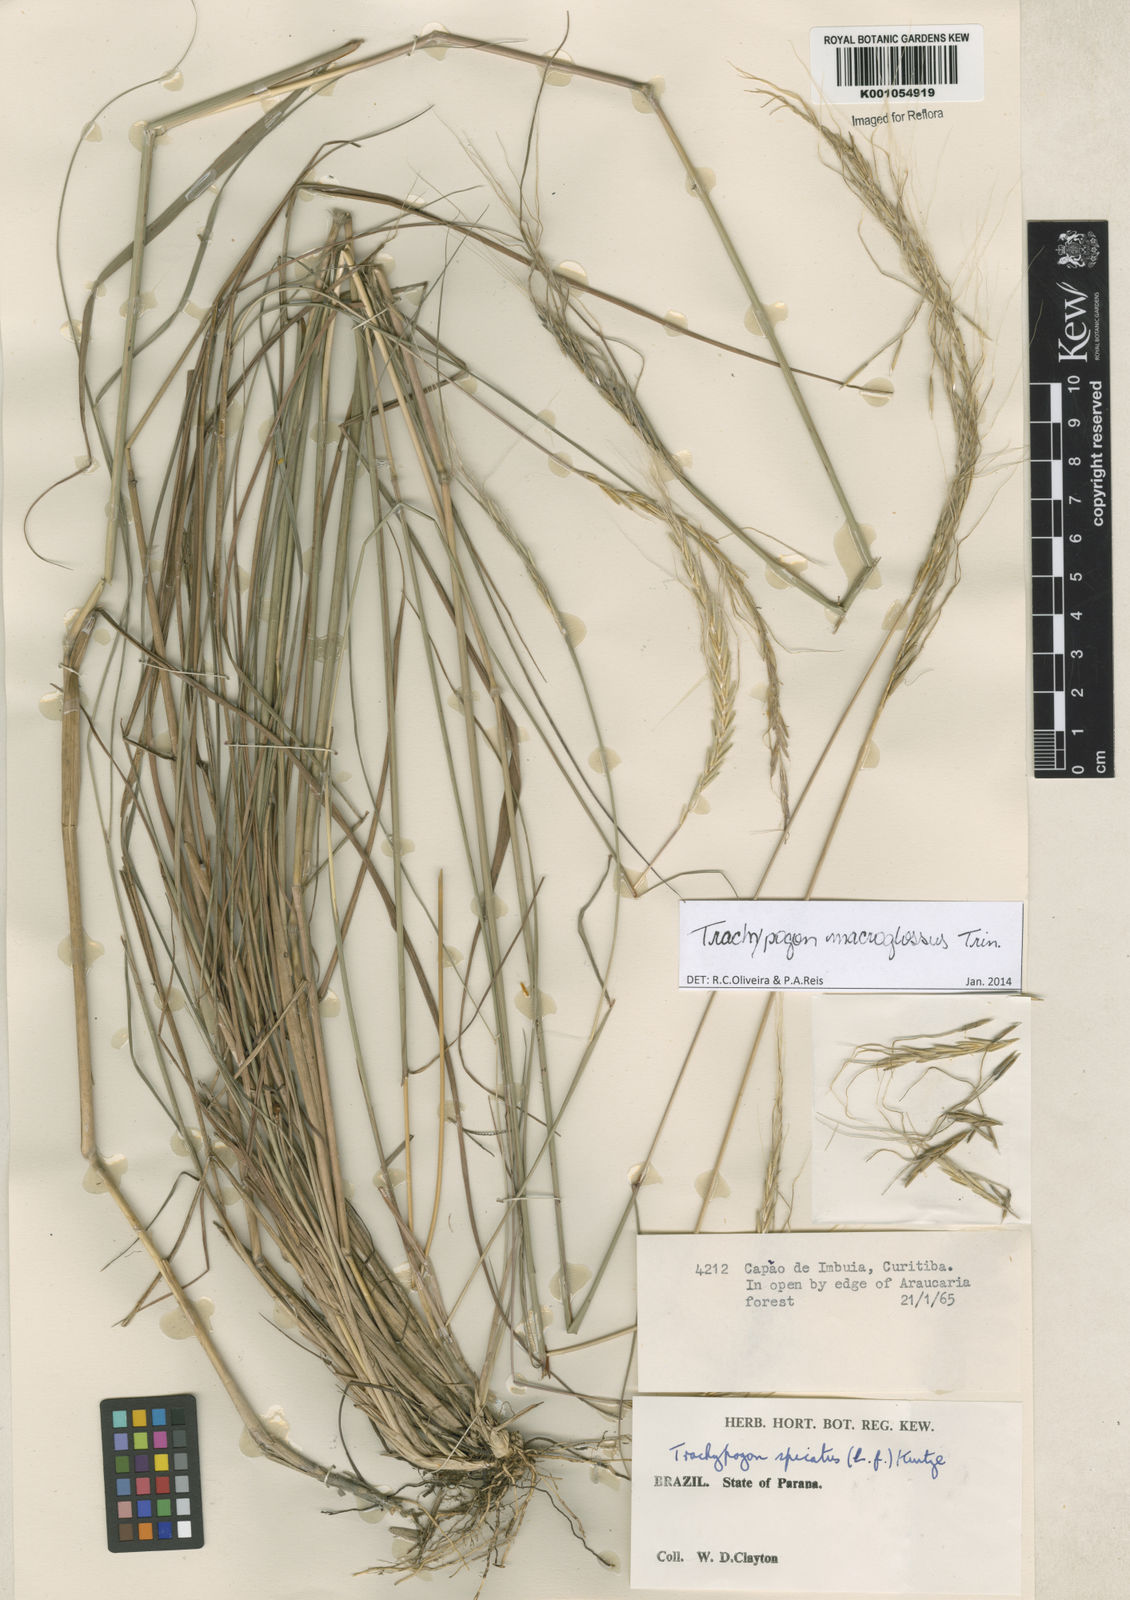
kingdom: Plantae
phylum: Tracheophyta
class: Liliopsida
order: Poales
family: Poaceae
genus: Trachypogon
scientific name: Trachypogon macroglossus
